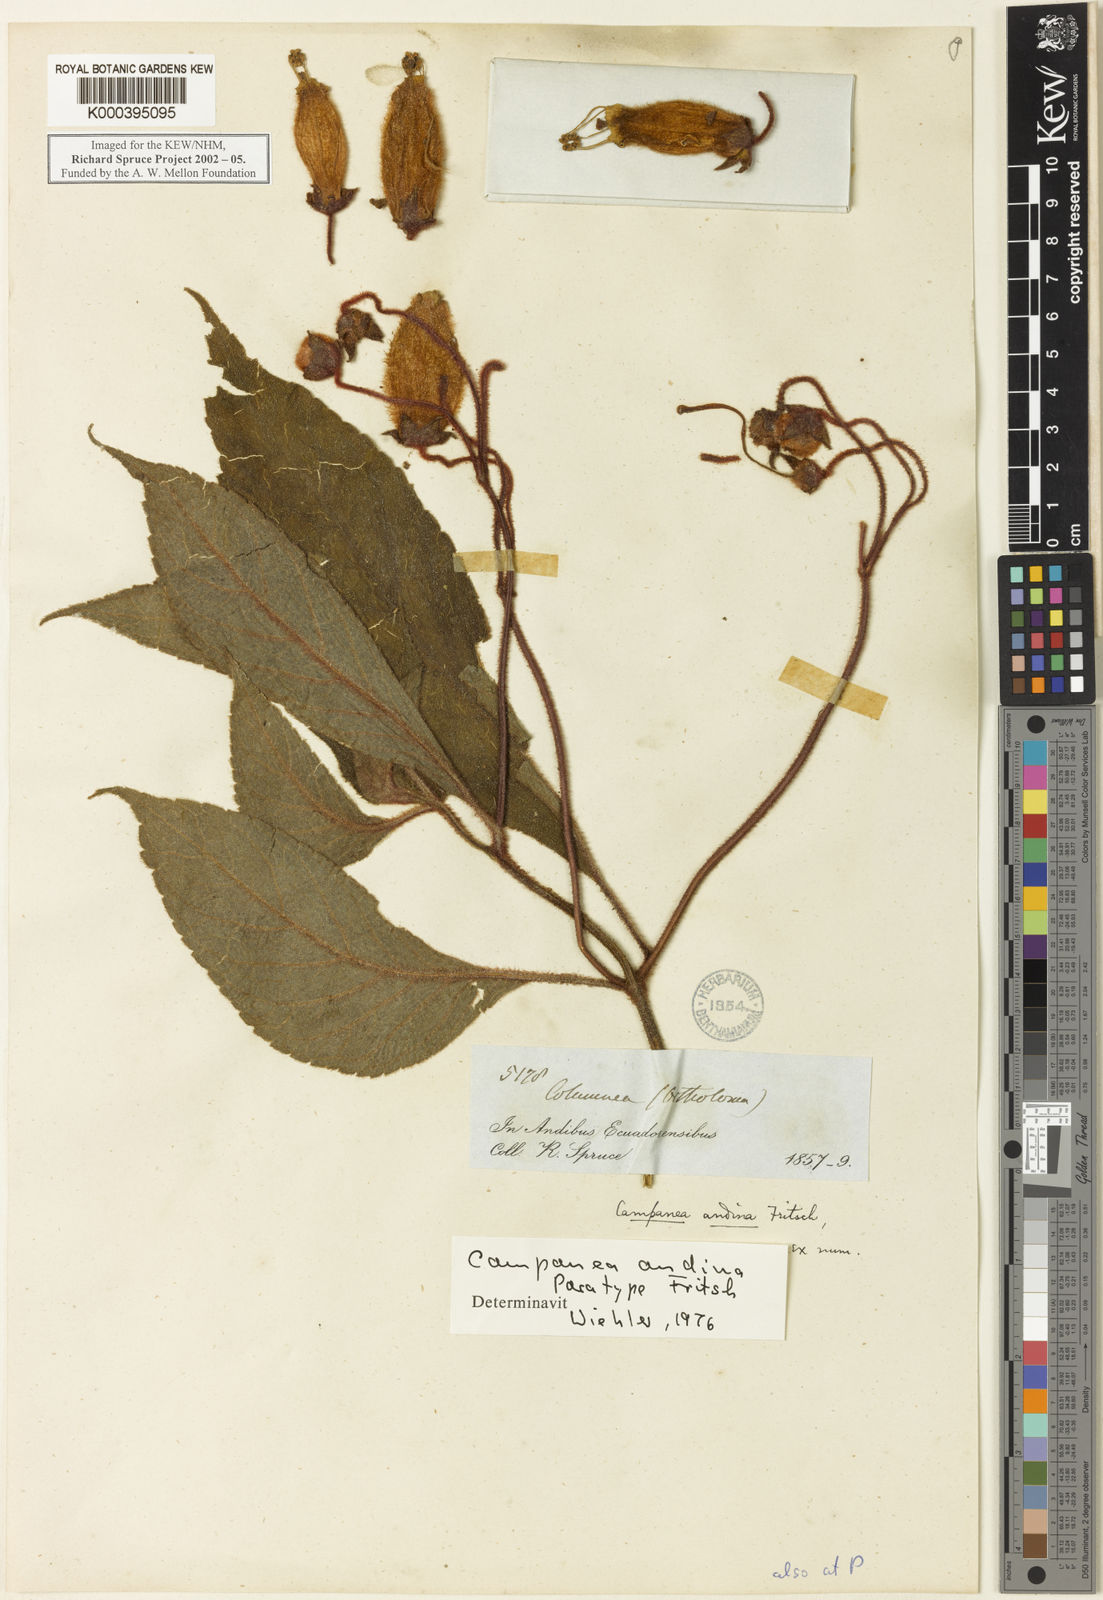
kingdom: Plantae
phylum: Tracheophyta
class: Magnoliopsida
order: Lamiales
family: Gesneriaceae
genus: Kohleria
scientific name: Kohleria andina
